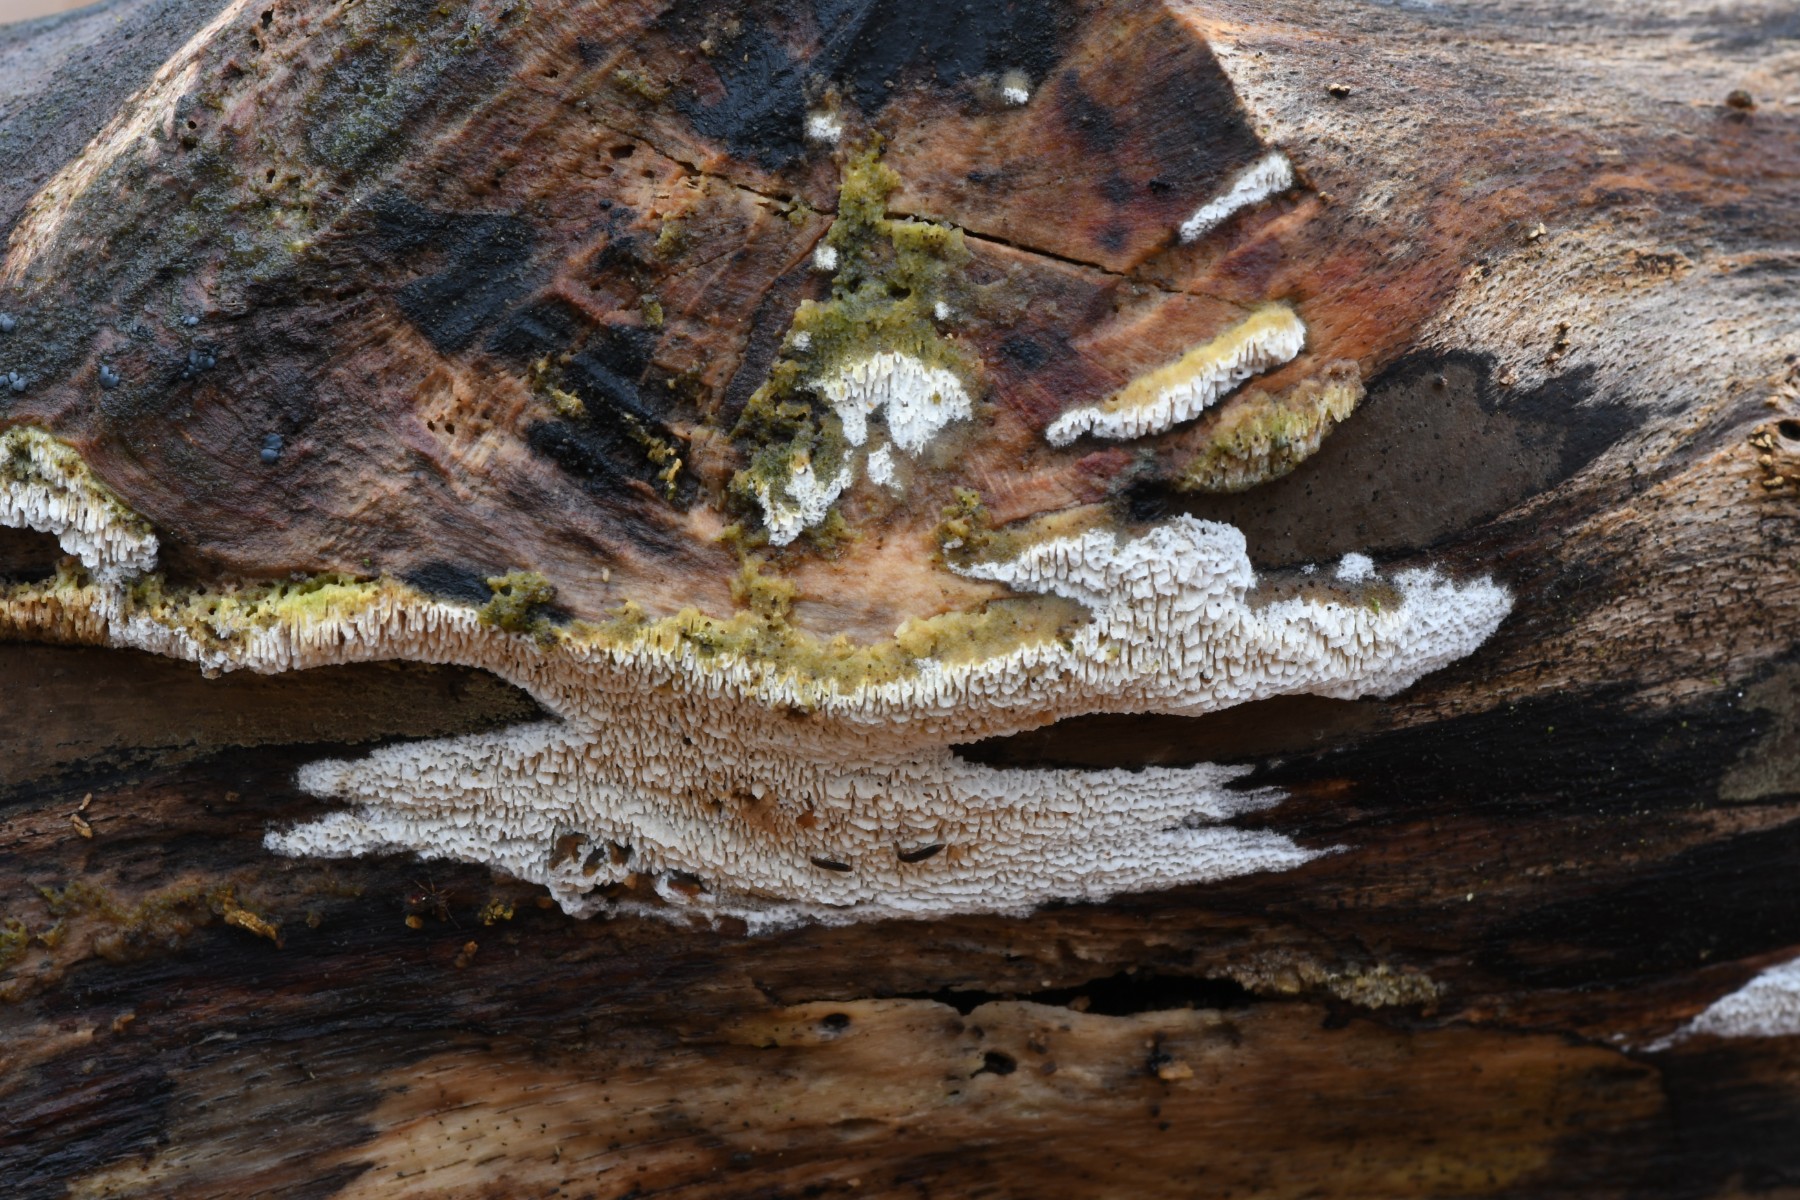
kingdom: Fungi
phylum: Basidiomycota
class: Agaricomycetes
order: Hymenochaetales
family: Schizoporaceae
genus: Schizopora
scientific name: Schizopora paradoxa
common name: hvid tandsvamp
